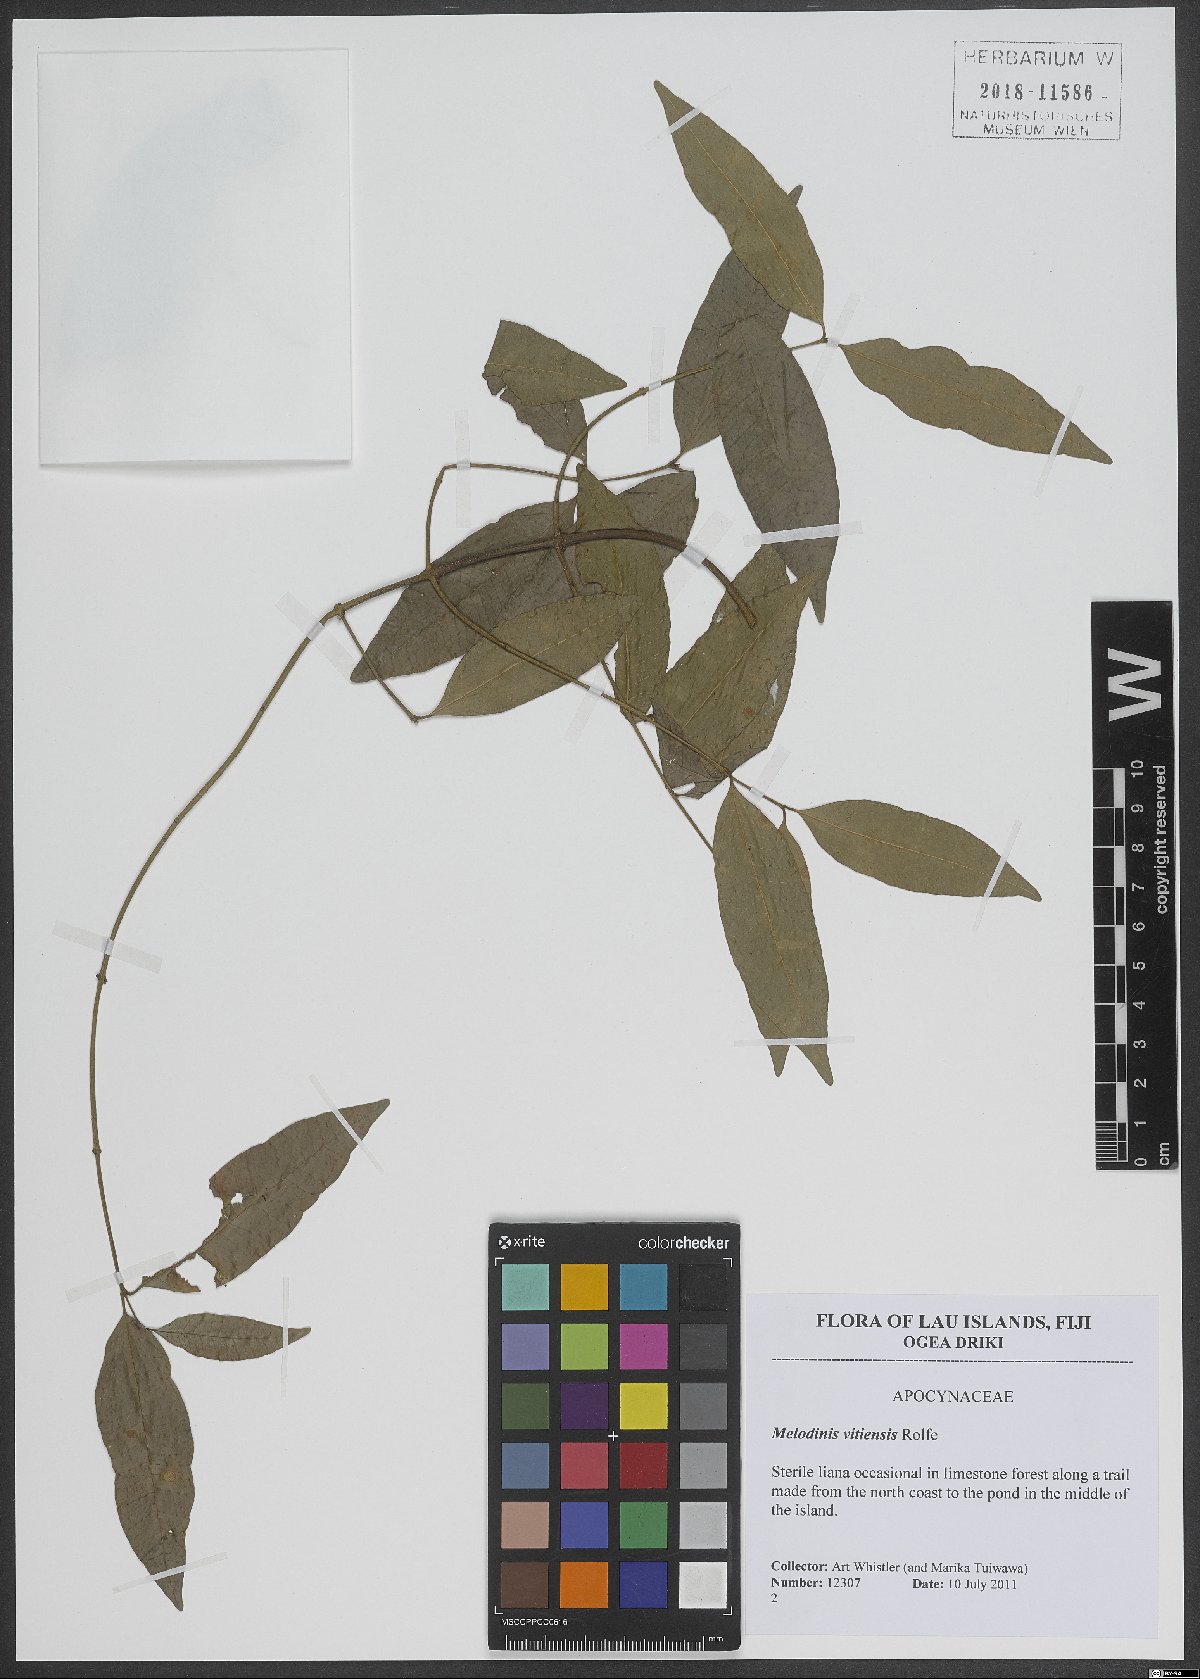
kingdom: Plantae
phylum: Tracheophyta
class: Magnoliopsida
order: Gentianales
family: Apocynaceae
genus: Melodinus
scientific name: Melodinus vitiensis
